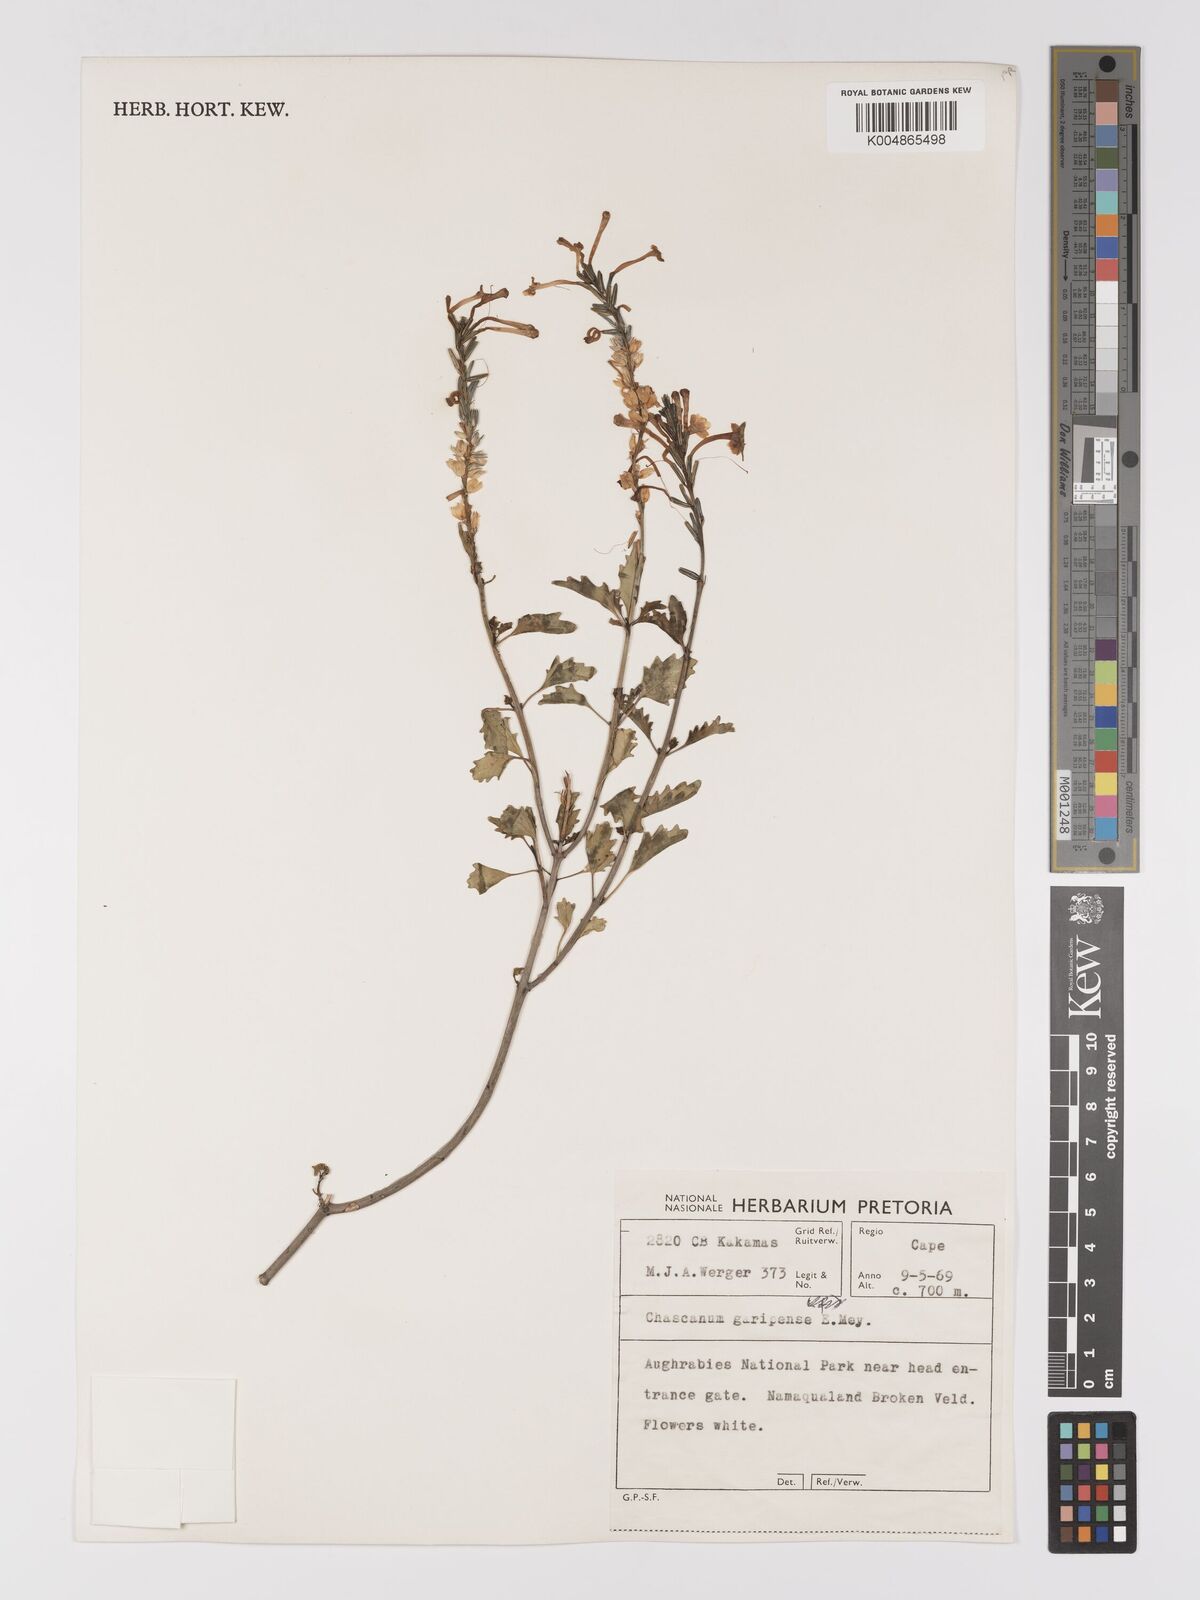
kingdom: Plantae
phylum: Tracheophyta
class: Magnoliopsida
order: Lamiales
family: Verbenaceae
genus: Chascanum
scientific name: Chascanum garipense
